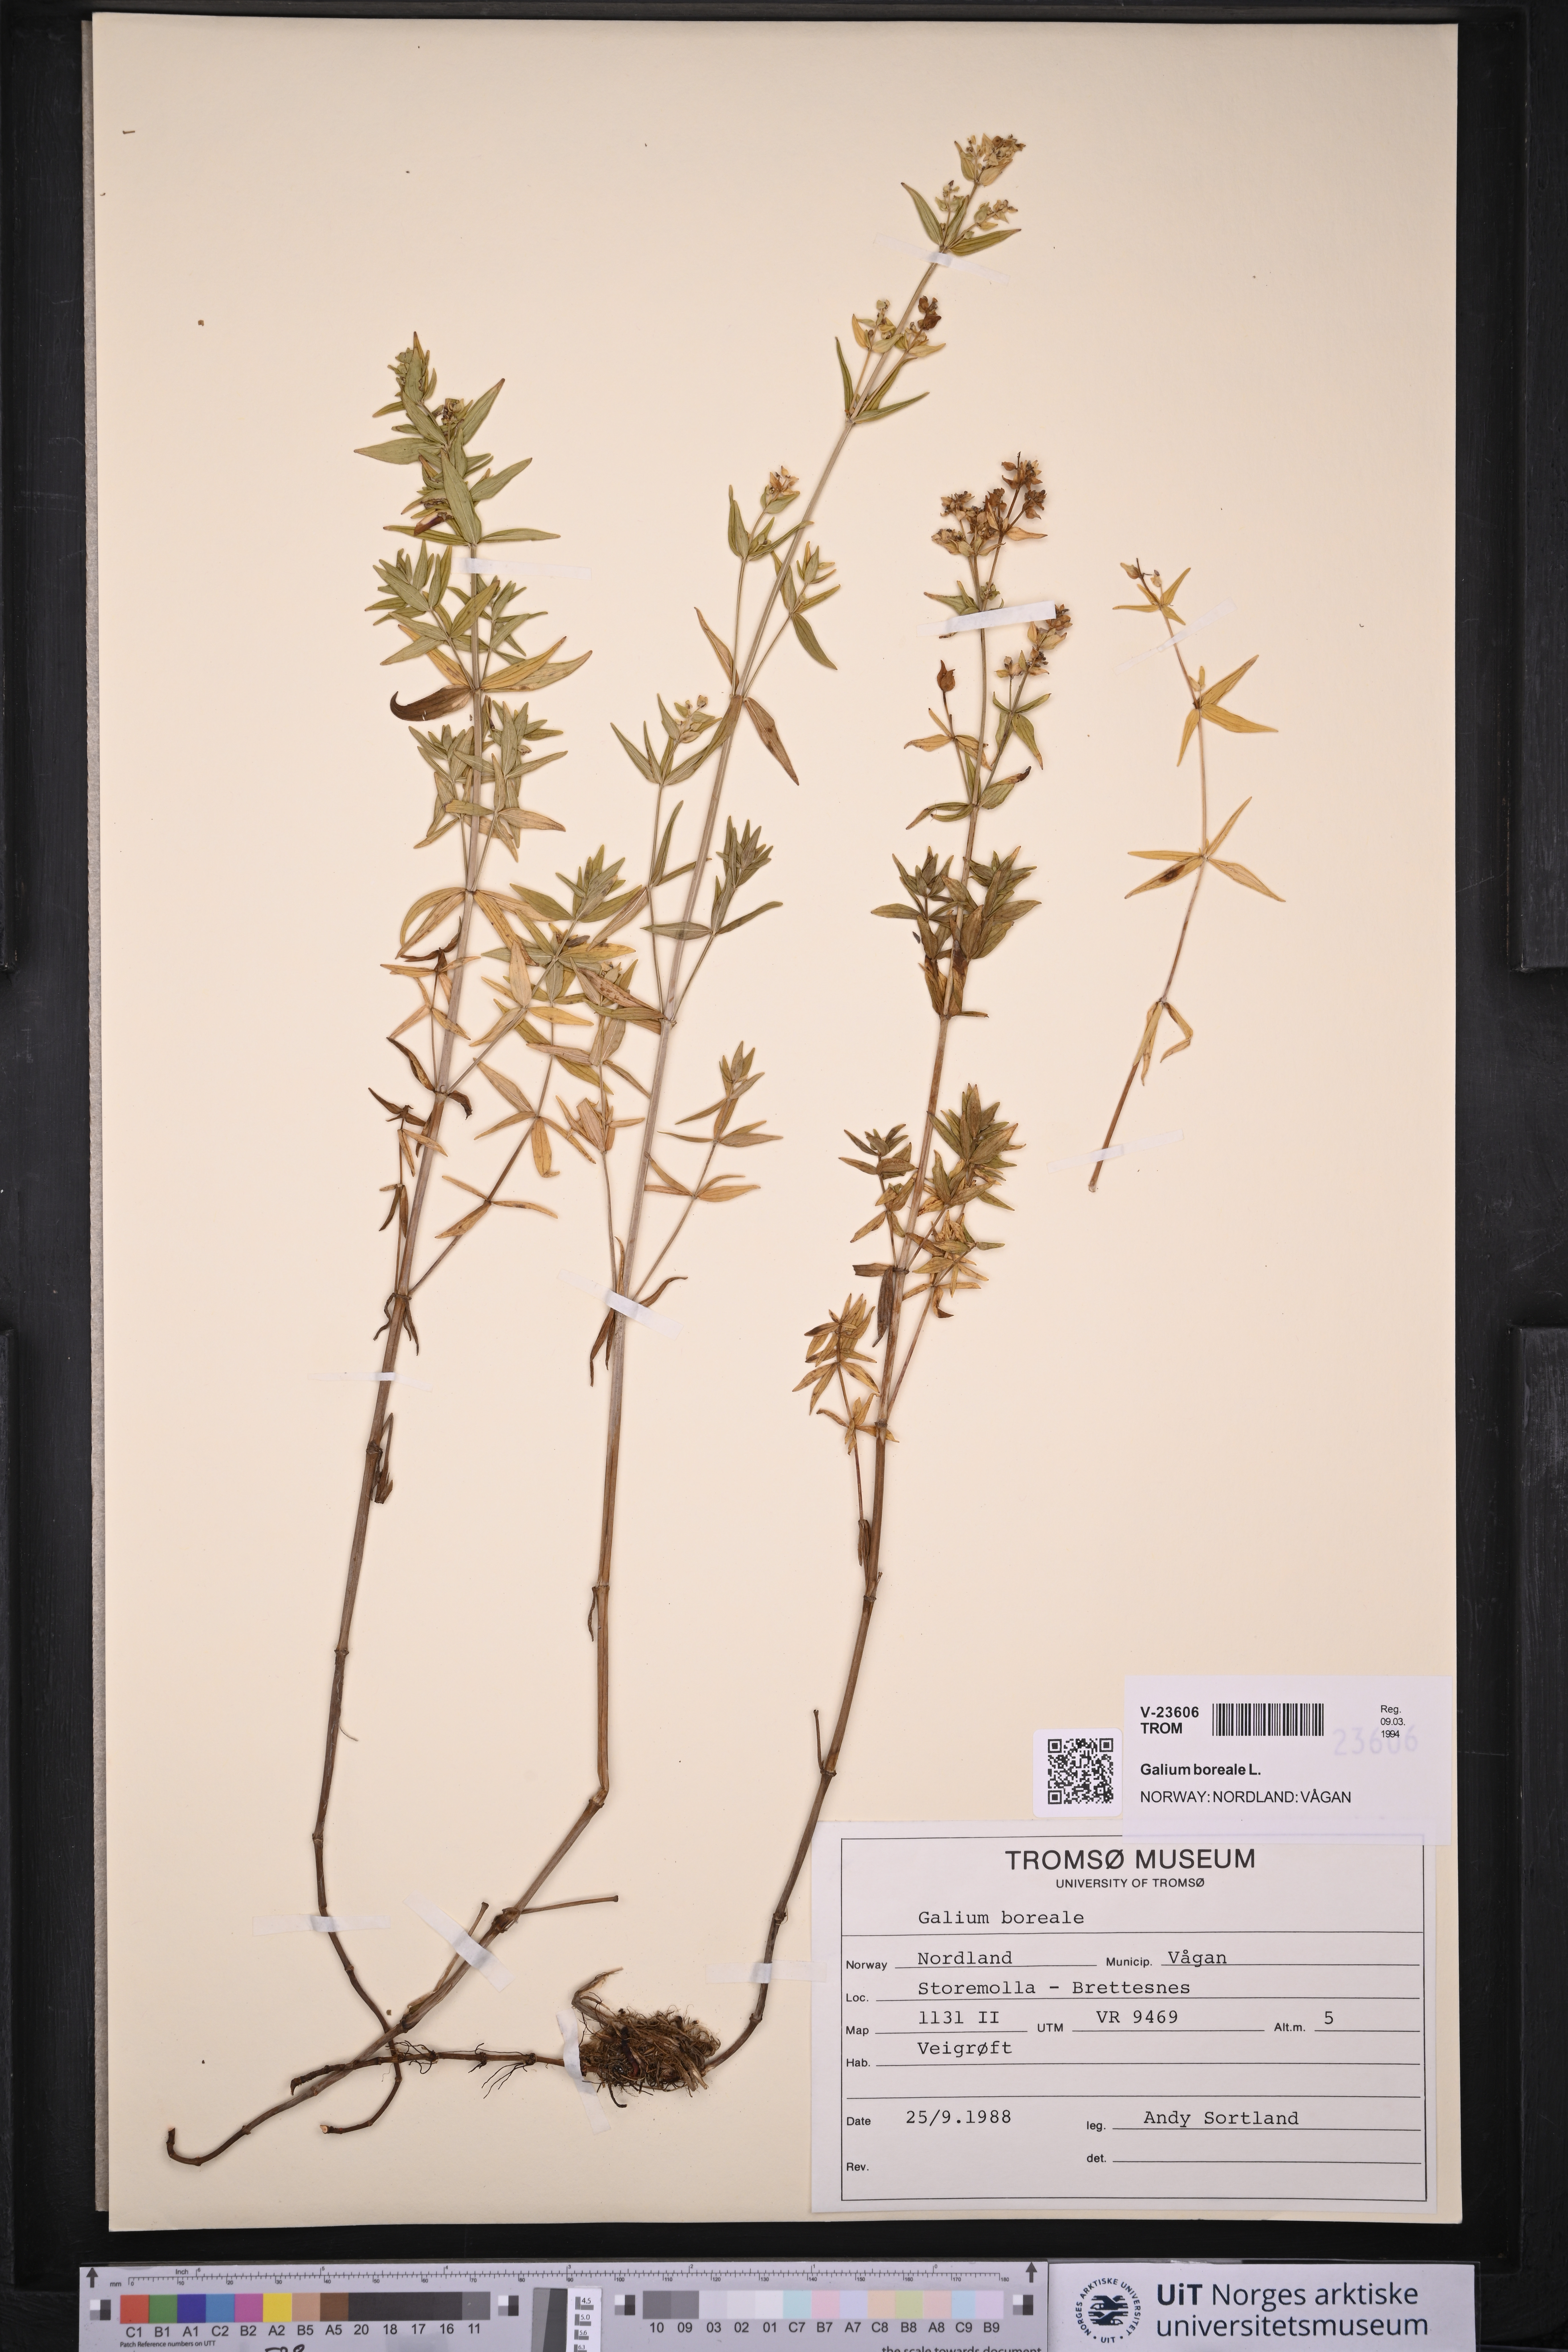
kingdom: Plantae
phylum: Tracheophyta
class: Magnoliopsida
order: Gentianales
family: Rubiaceae
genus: Galium
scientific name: Galium boreale
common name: Northern bedstraw
